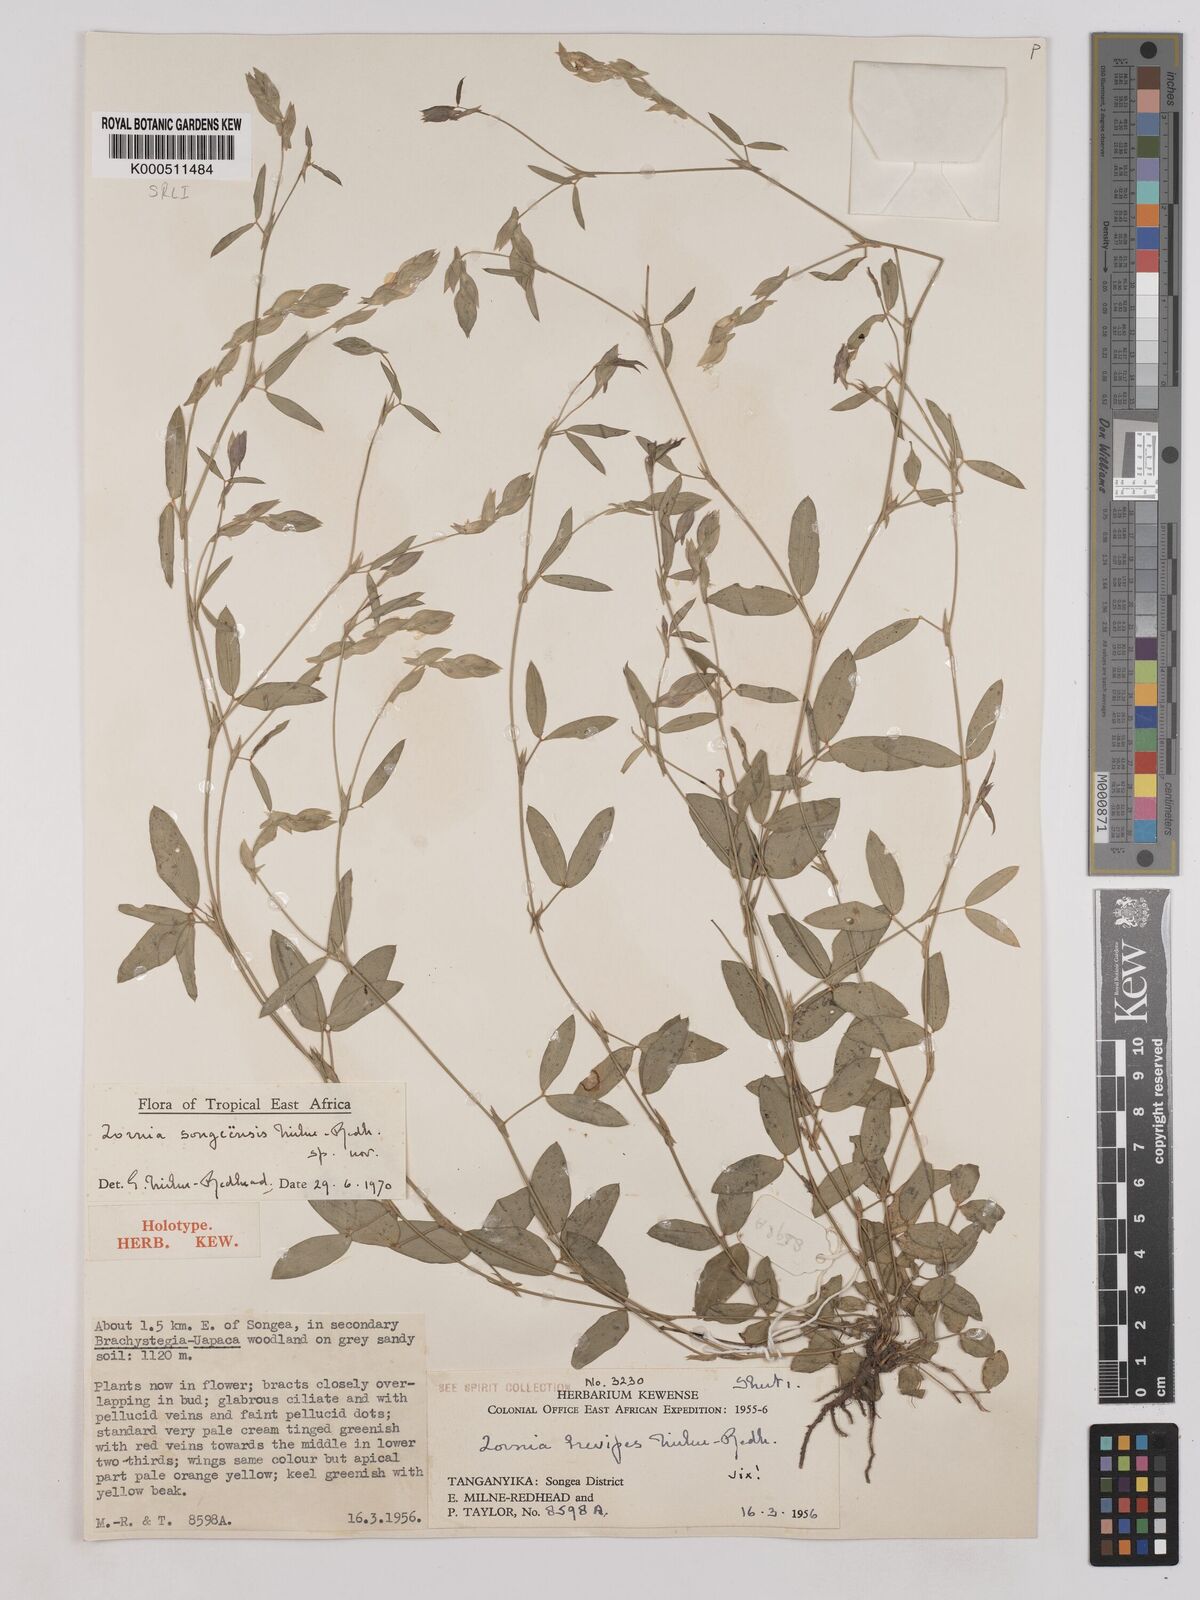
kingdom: Plantae
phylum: Tracheophyta
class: Magnoliopsida
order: Fabales
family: Fabaceae
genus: Zornia
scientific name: Zornia songeensis
